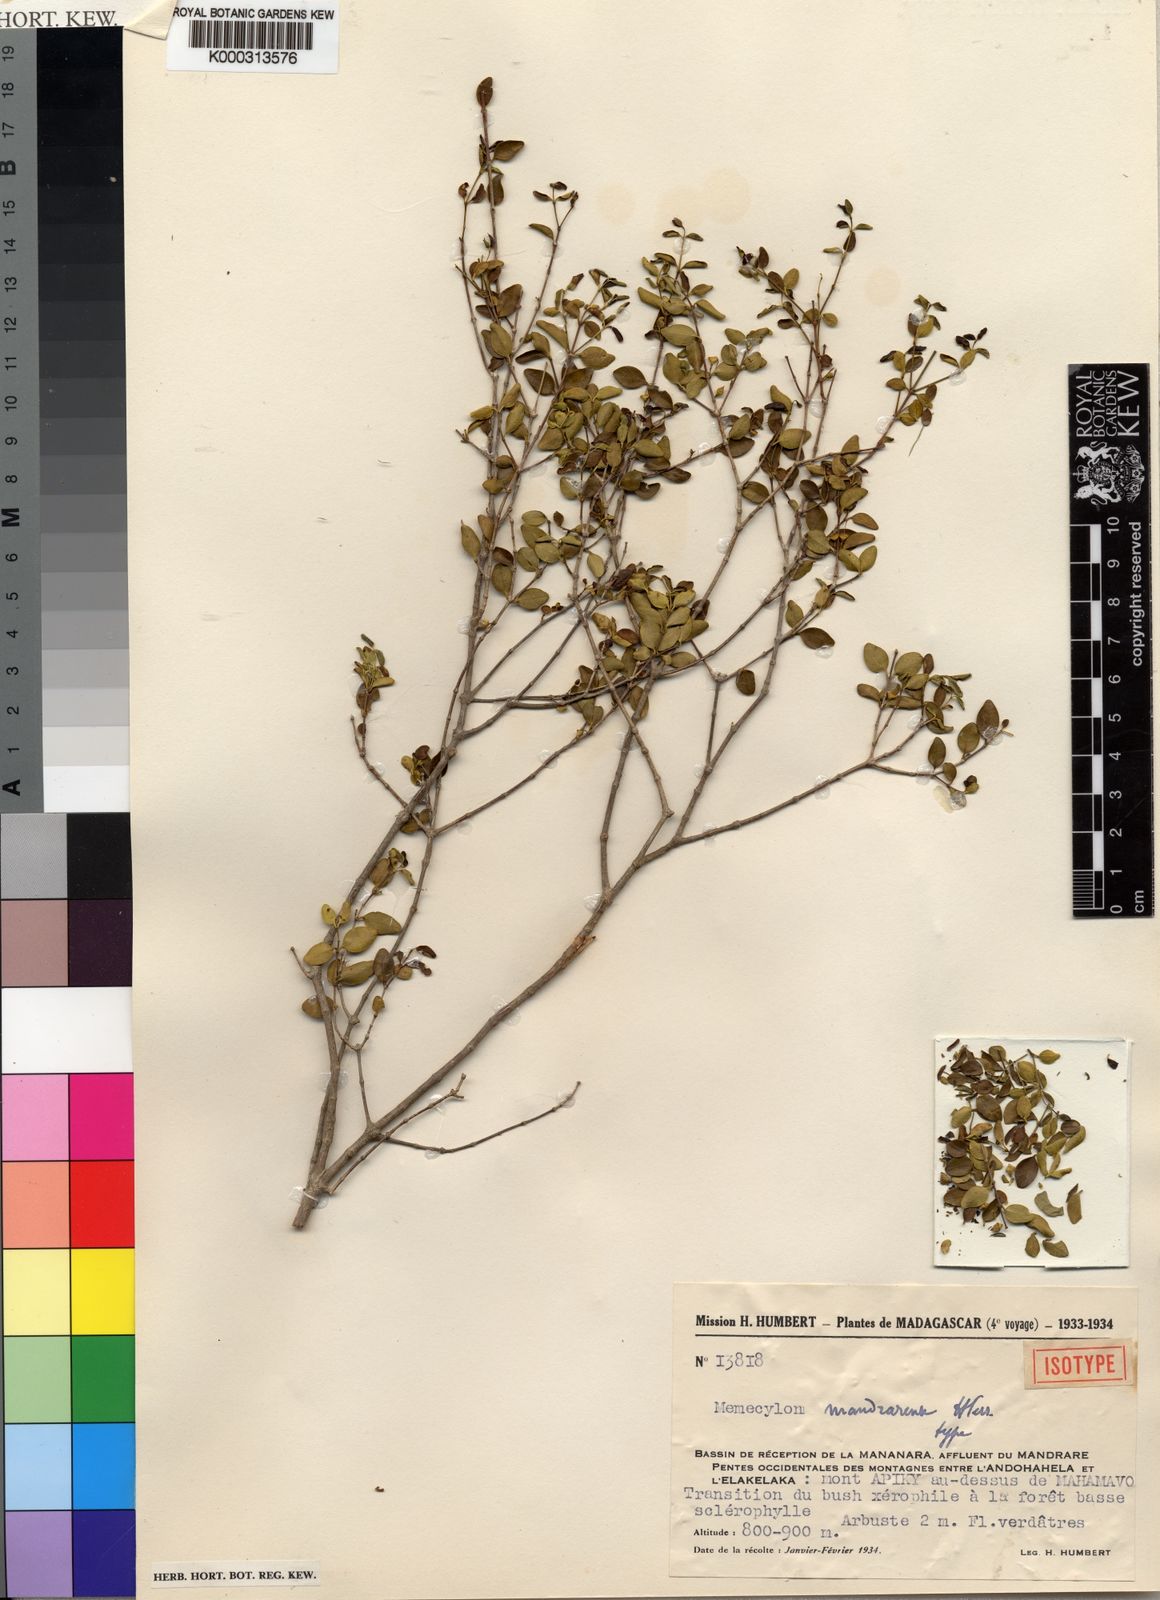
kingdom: Plantae
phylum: Tracheophyta
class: Magnoliopsida
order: Myrtales
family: Melastomataceae
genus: Memecylon
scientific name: Memecylon mandrarense
